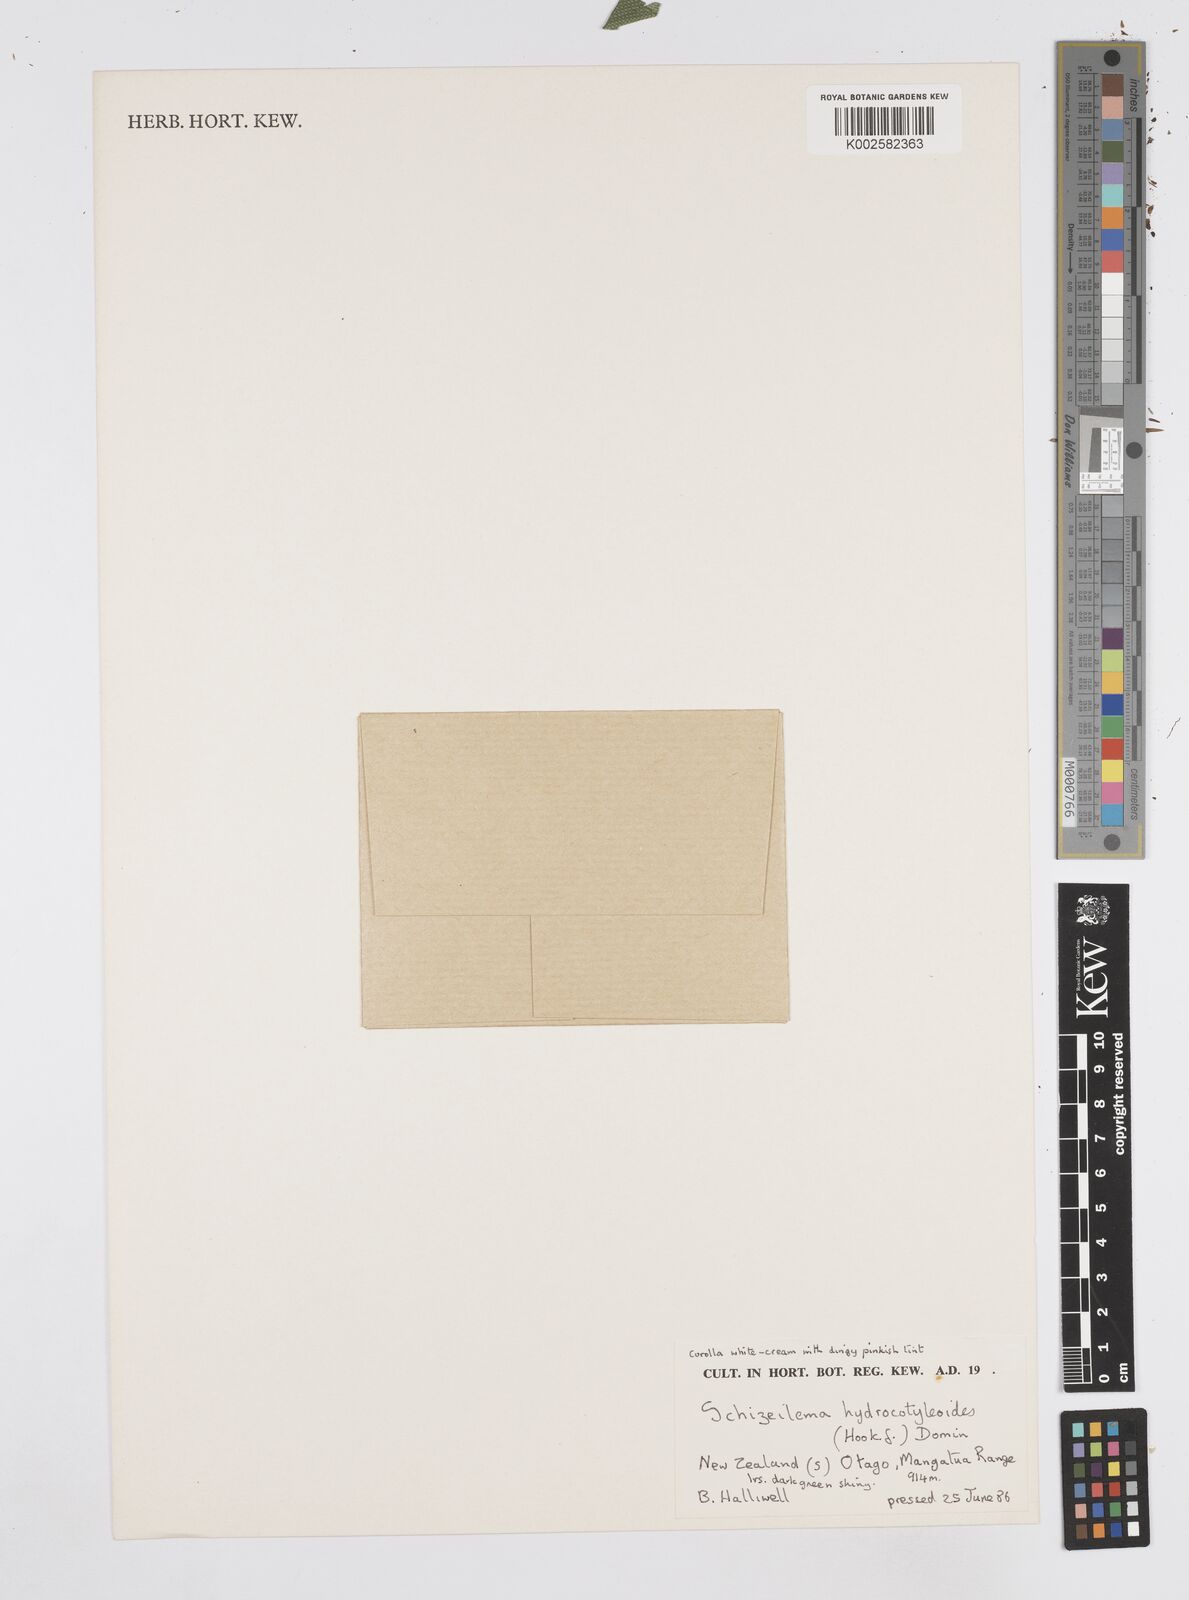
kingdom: Plantae
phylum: Tracheophyta
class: Magnoliopsida
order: Apiales
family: Apiaceae
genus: Azorella
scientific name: Azorella andina
